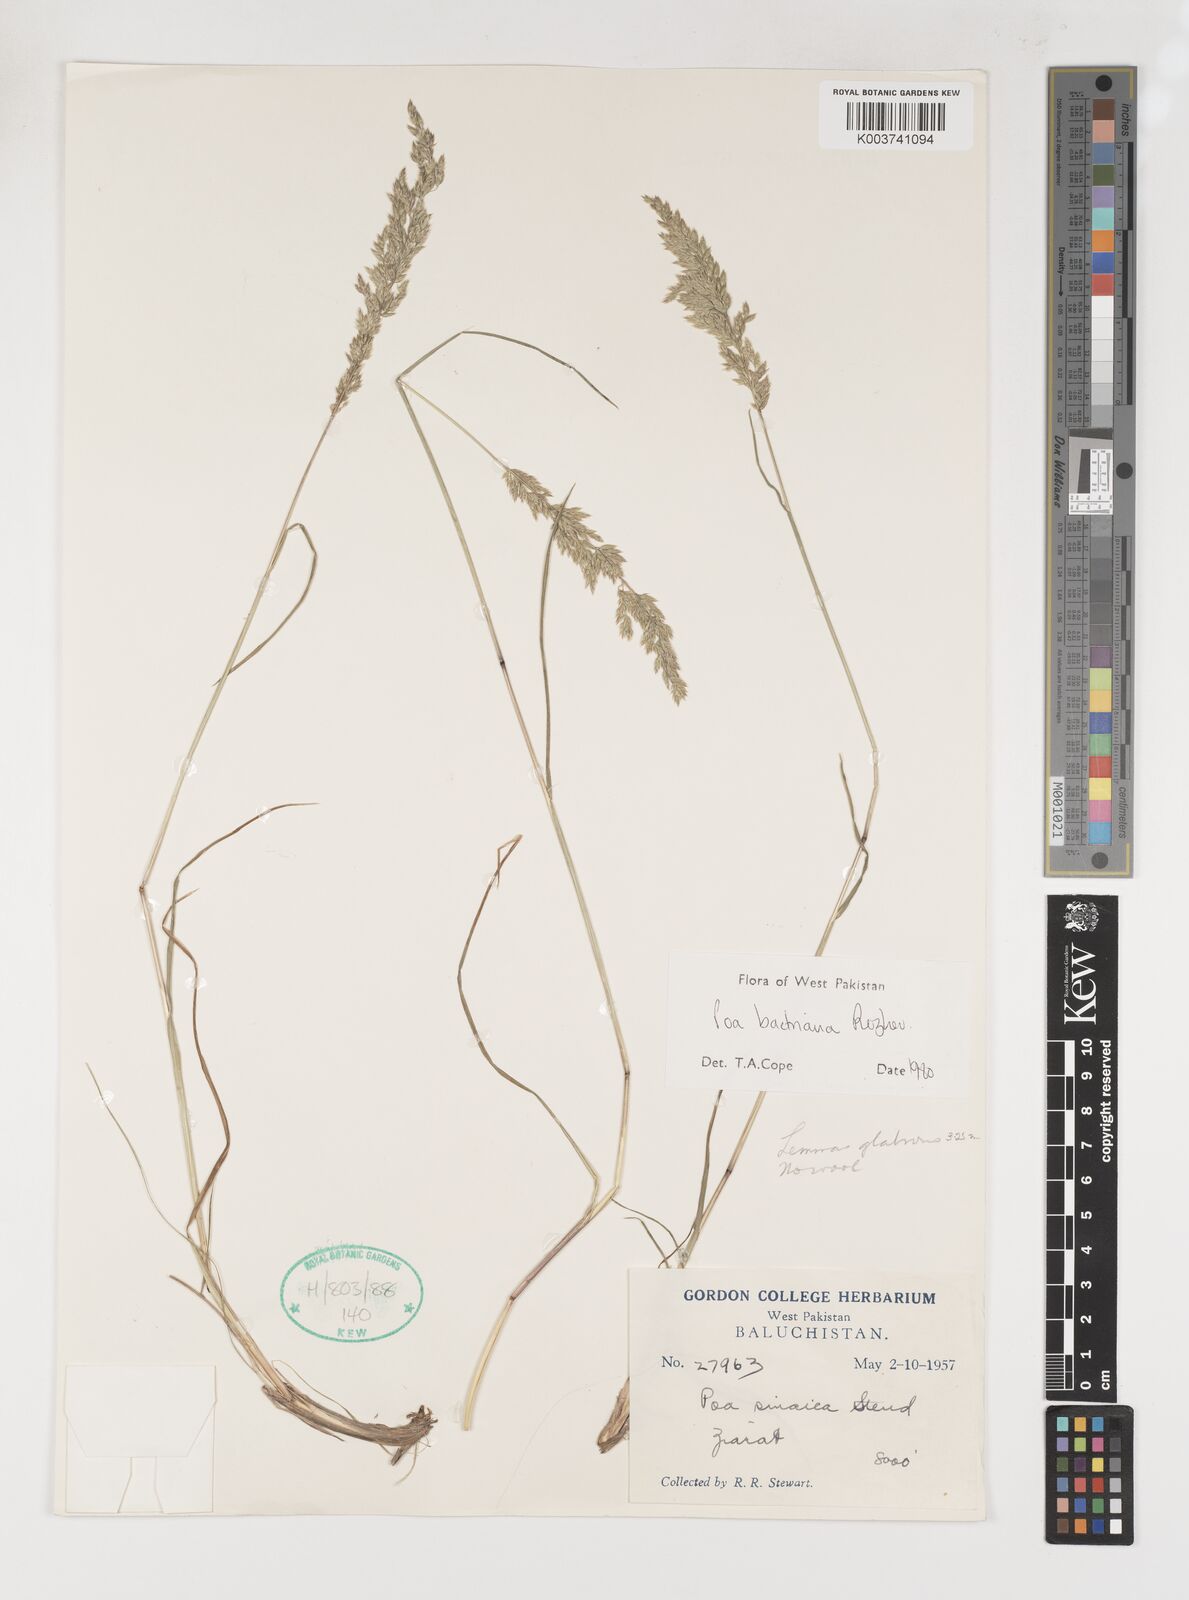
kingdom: Plantae
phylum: Tracheophyta
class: Liliopsida
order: Poales
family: Poaceae
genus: Poa
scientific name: Poa bactriana
